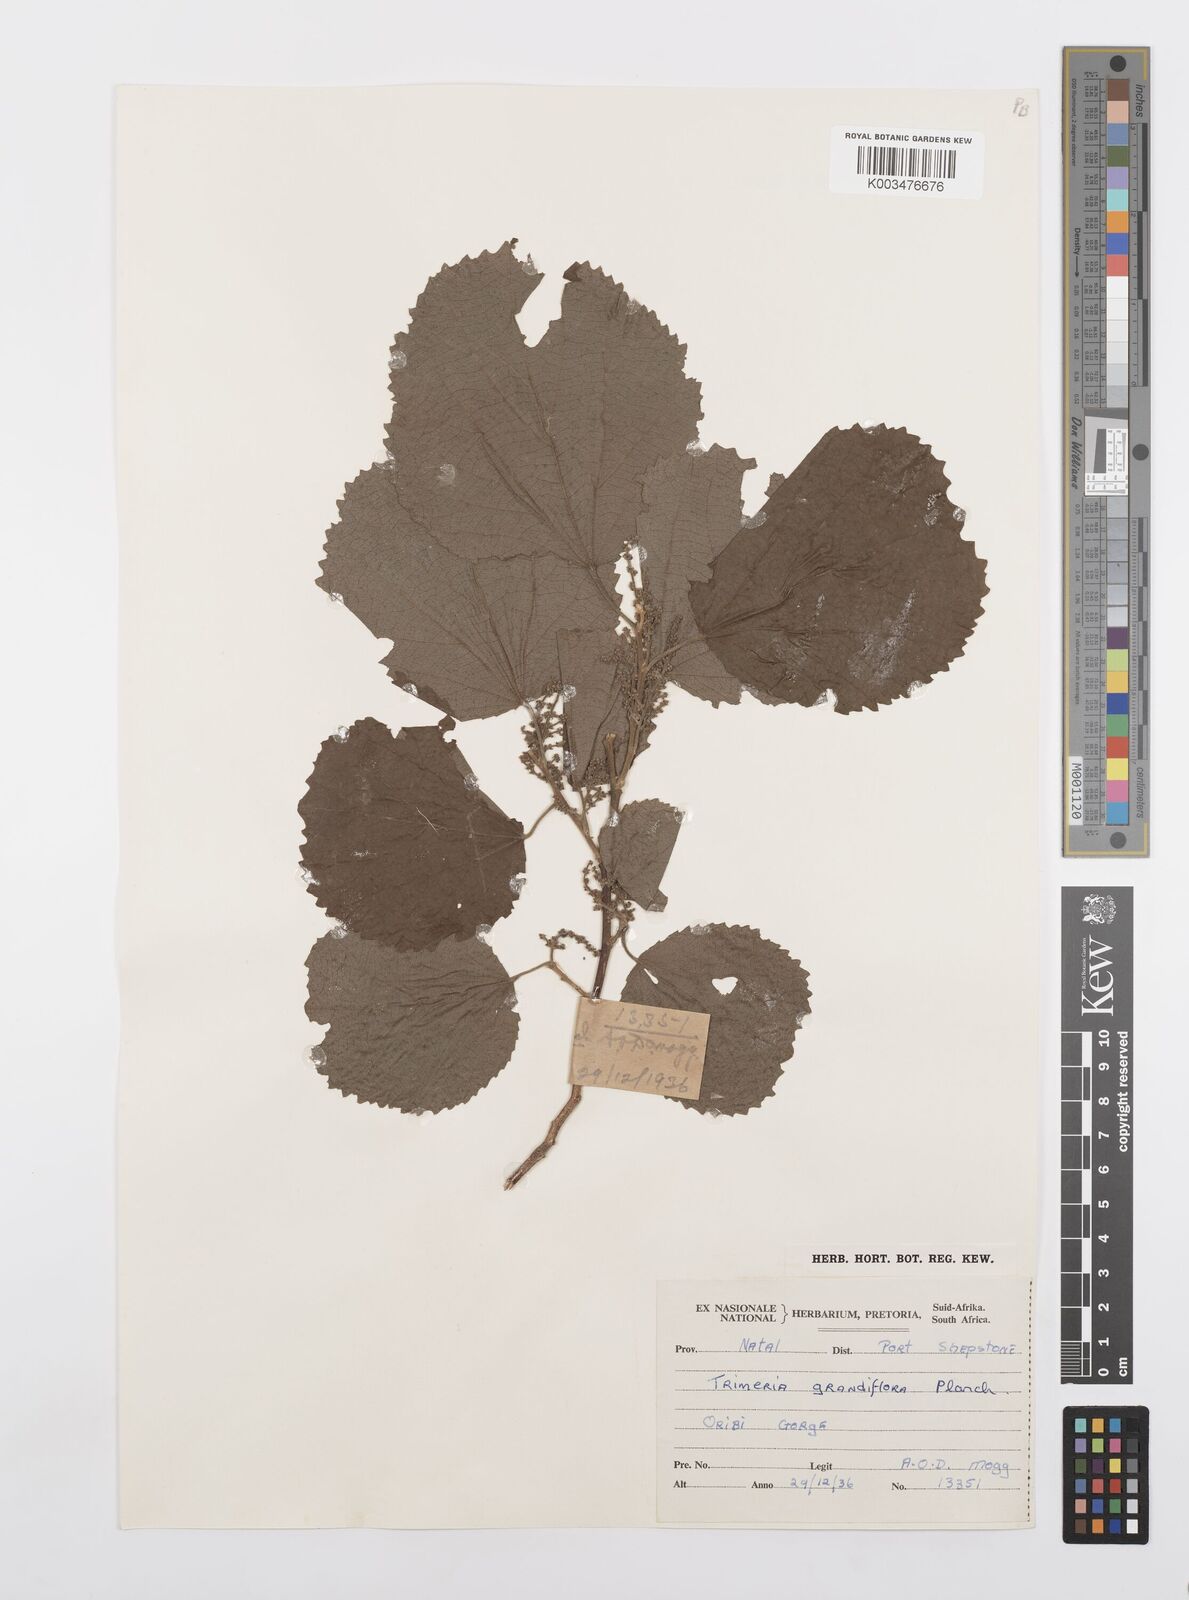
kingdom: Plantae
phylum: Tracheophyta
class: Magnoliopsida
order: Malpighiales
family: Salicaceae
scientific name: Salicaceae
